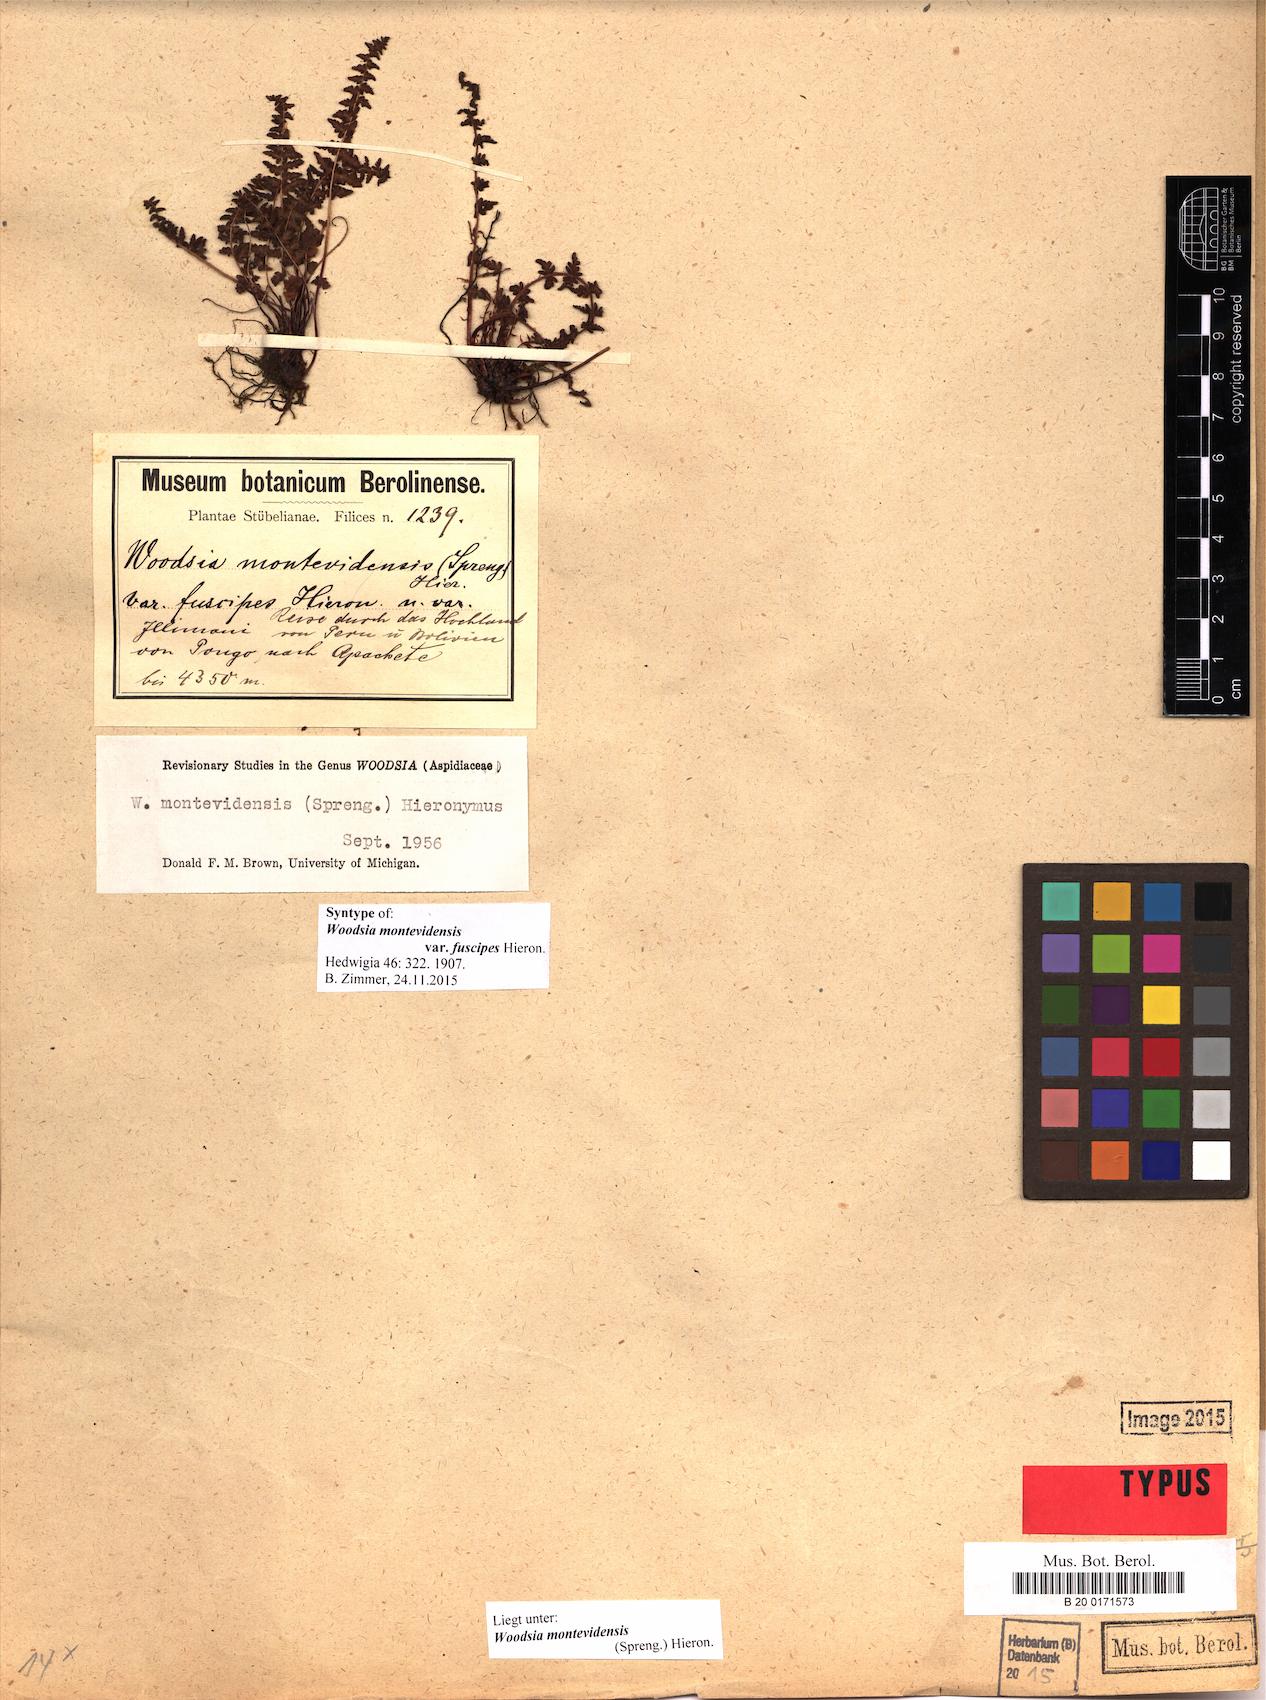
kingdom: Plantae
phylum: Tracheophyta
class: Polypodiopsida
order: Polypodiales
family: Woodsiaceae
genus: Physematium
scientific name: Physematium montevidense
